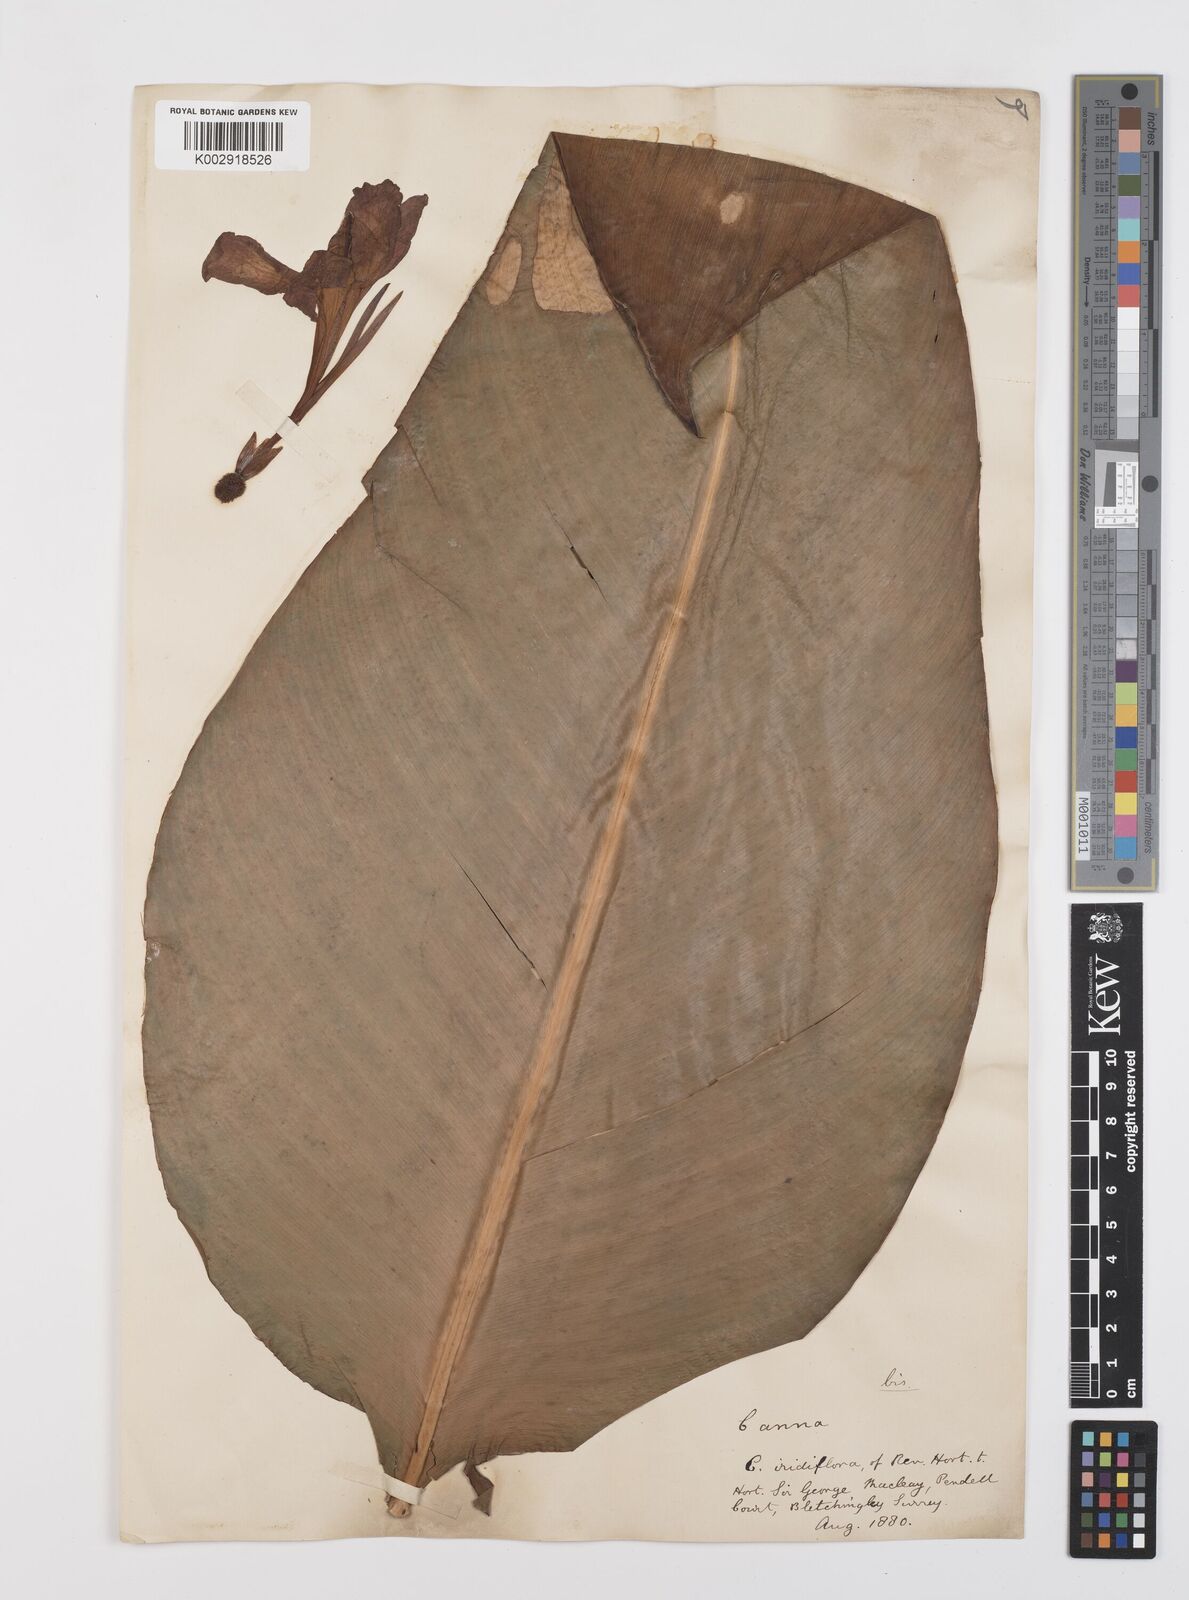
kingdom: Plantae
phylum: Tracheophyta
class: Liliopsida
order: Zingiberales
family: Cannaceae
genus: Canna
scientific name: Canna iridiflora
